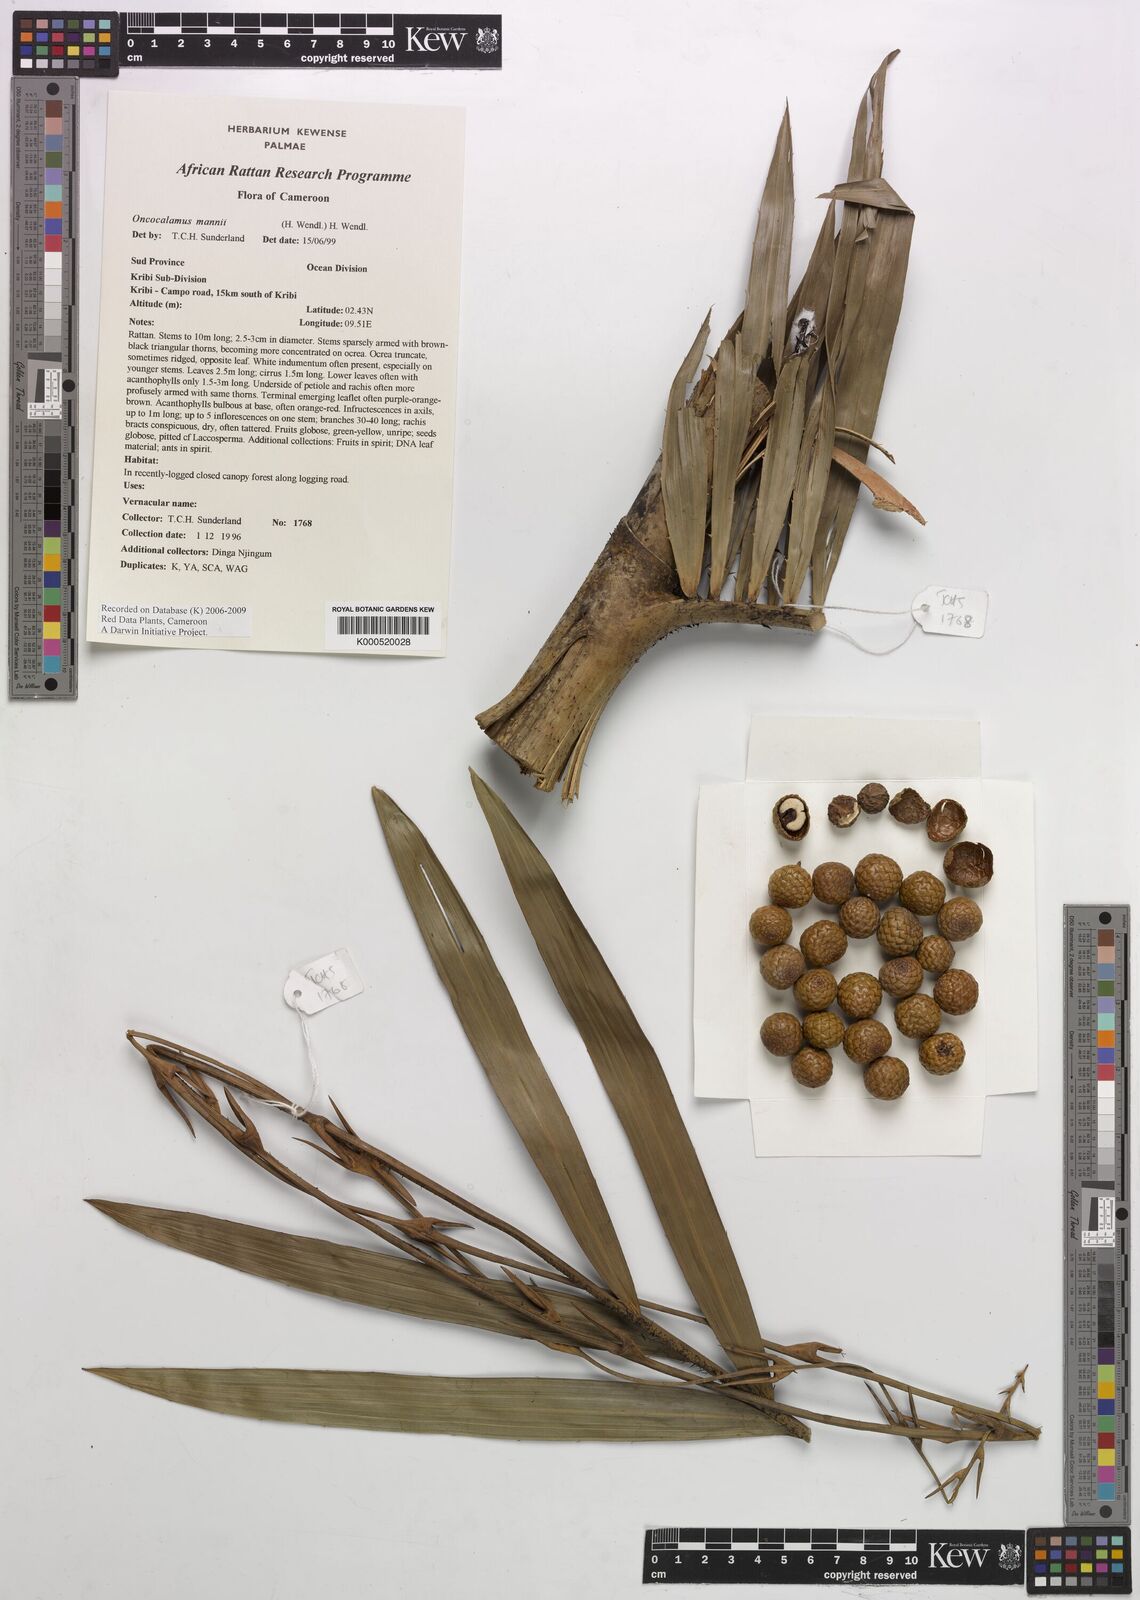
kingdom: Plantae
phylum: Tracheophyta
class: Liliopsida
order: Arecales
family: Arecaceae
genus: Oncocalamus
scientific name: Oncocalamus mannii
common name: Rattan
